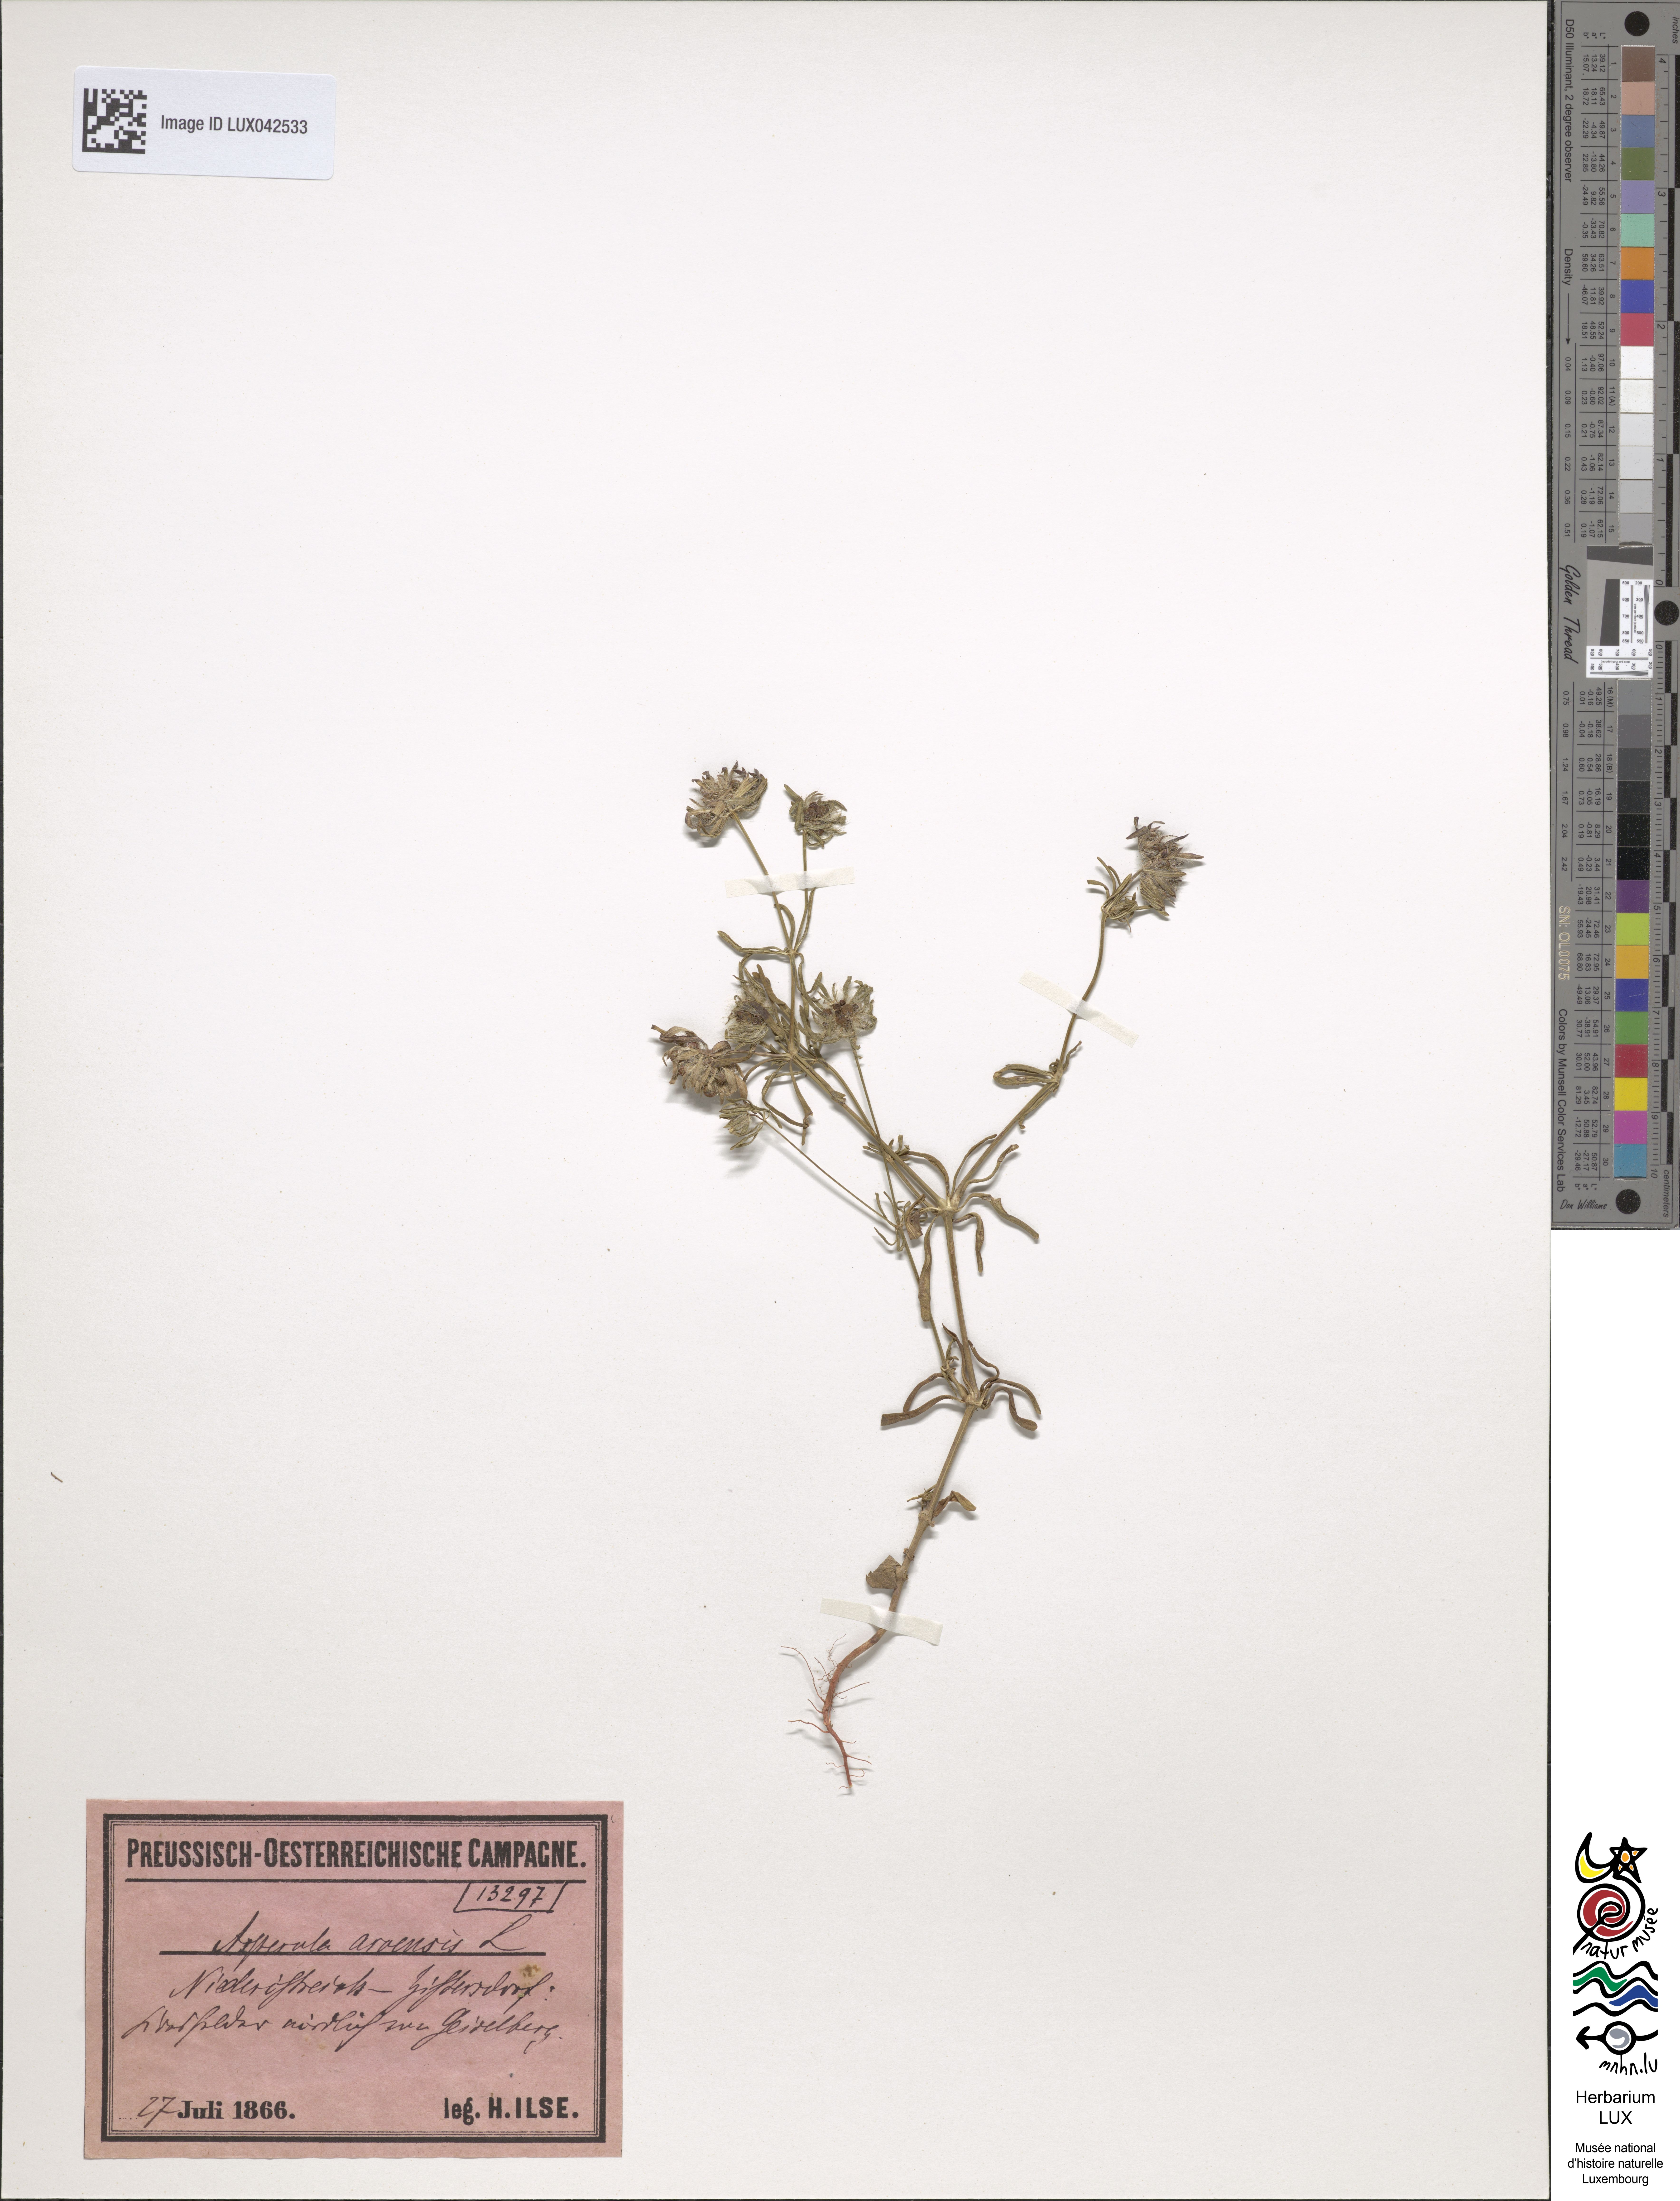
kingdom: Plantae
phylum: Tracheophyta
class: Magnoliopsida
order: Gentianales
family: Rubiaceae
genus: Asperula
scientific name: Asperula arvensis
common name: Blue woodruff
